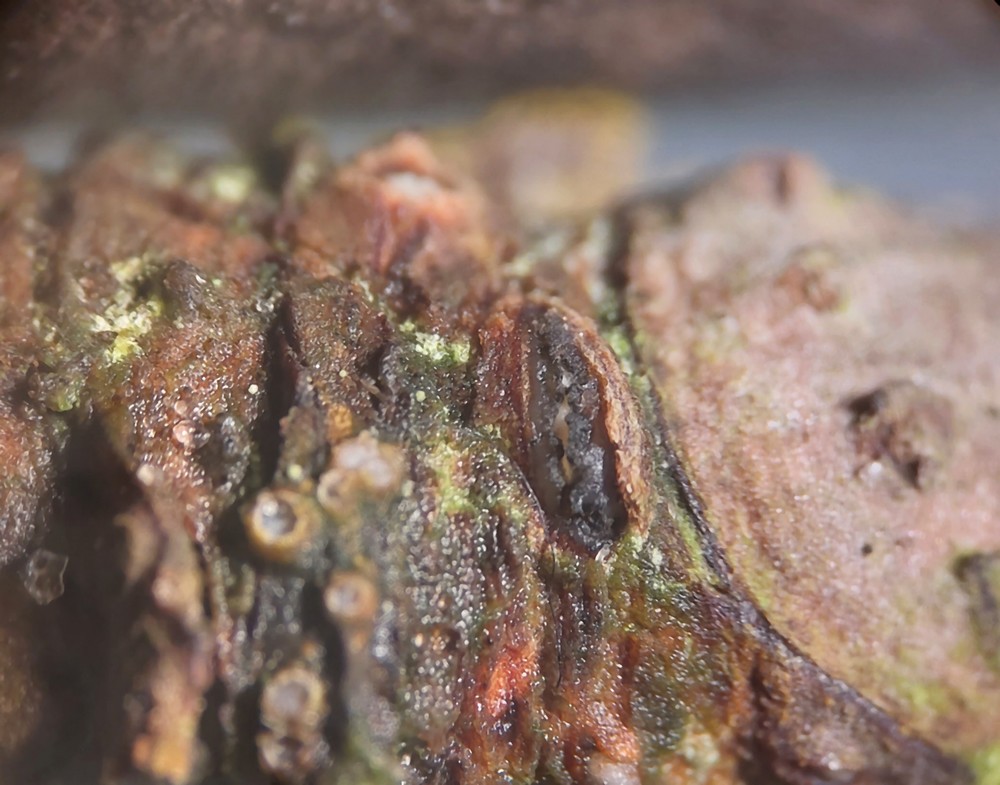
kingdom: Fungi
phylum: Ascomycota
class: Sordariomycetes
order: Diaporthales
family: Gnomoniaceae
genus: Plagiostoma
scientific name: Plagiostoma aesculi
